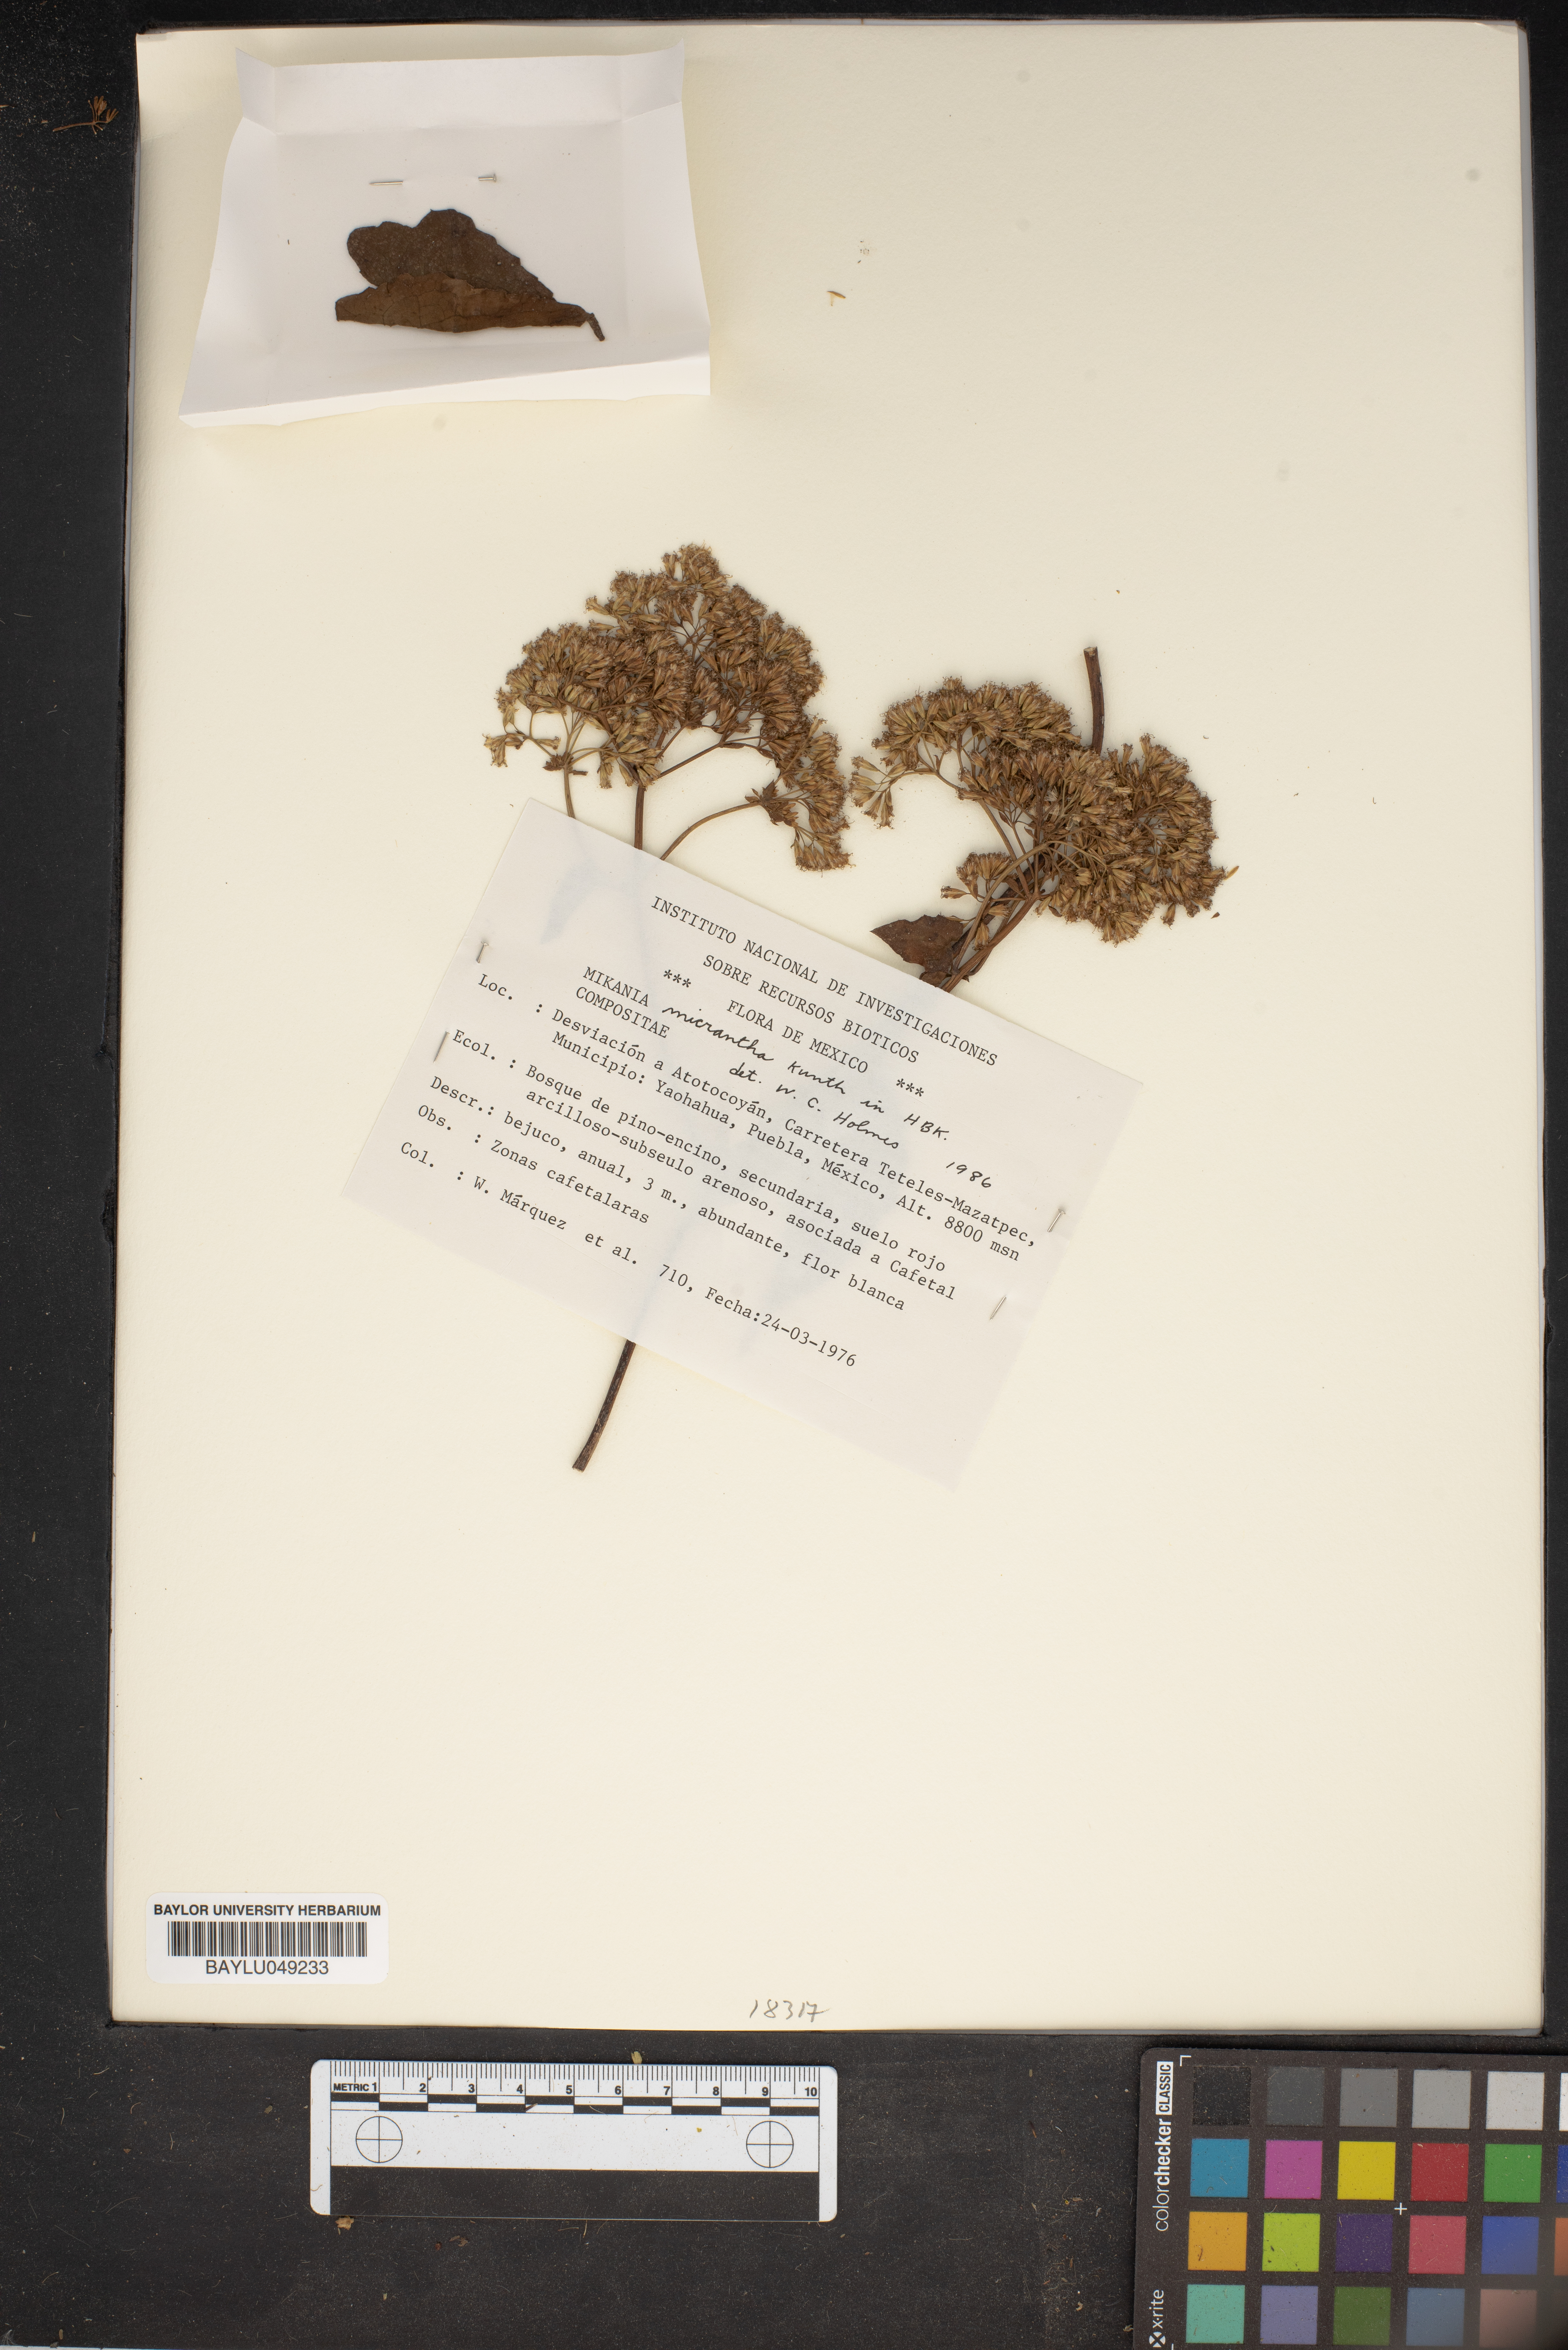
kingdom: Plantae
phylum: Tracheophyta
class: Magnoliopsida
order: Asterales
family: Asteraceae
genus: Mikania
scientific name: Mikania micrantha
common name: Mile-a-minute
